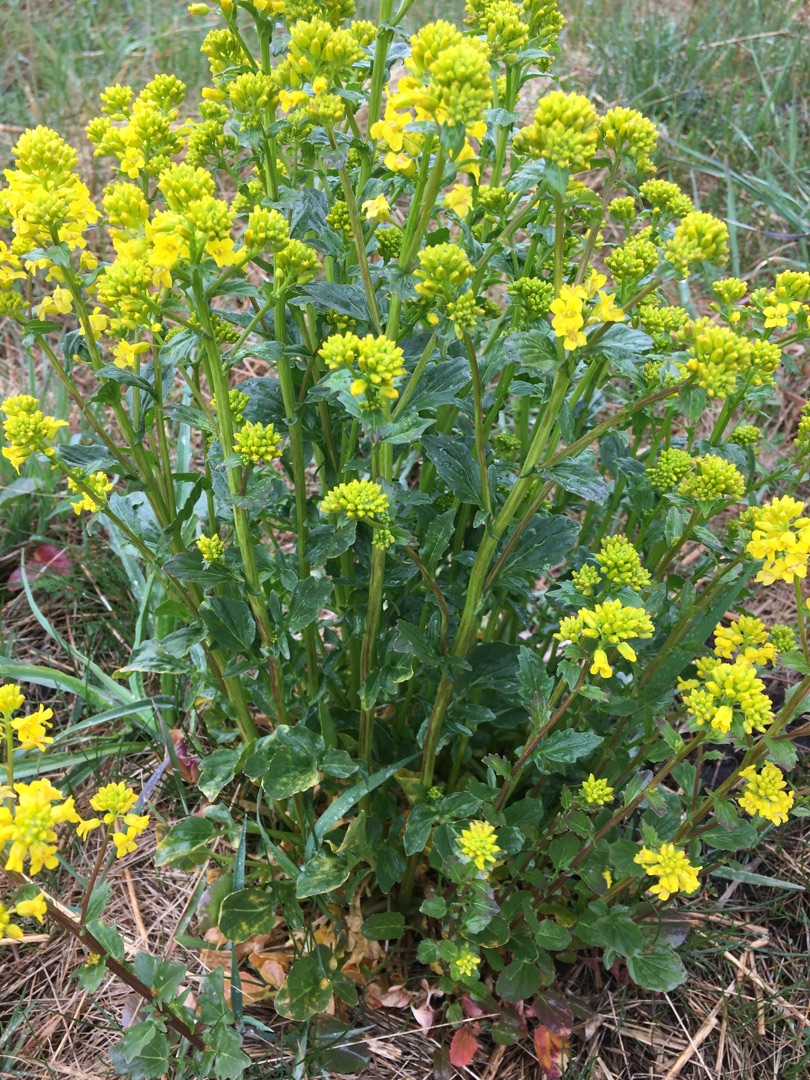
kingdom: Plantae
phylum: Tracheophyta
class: Magnoliopsida
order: Brassicales
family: Brassicaceae
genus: Barbarea
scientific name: Barbarea vulgaris
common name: Almindelig vinterkarse
